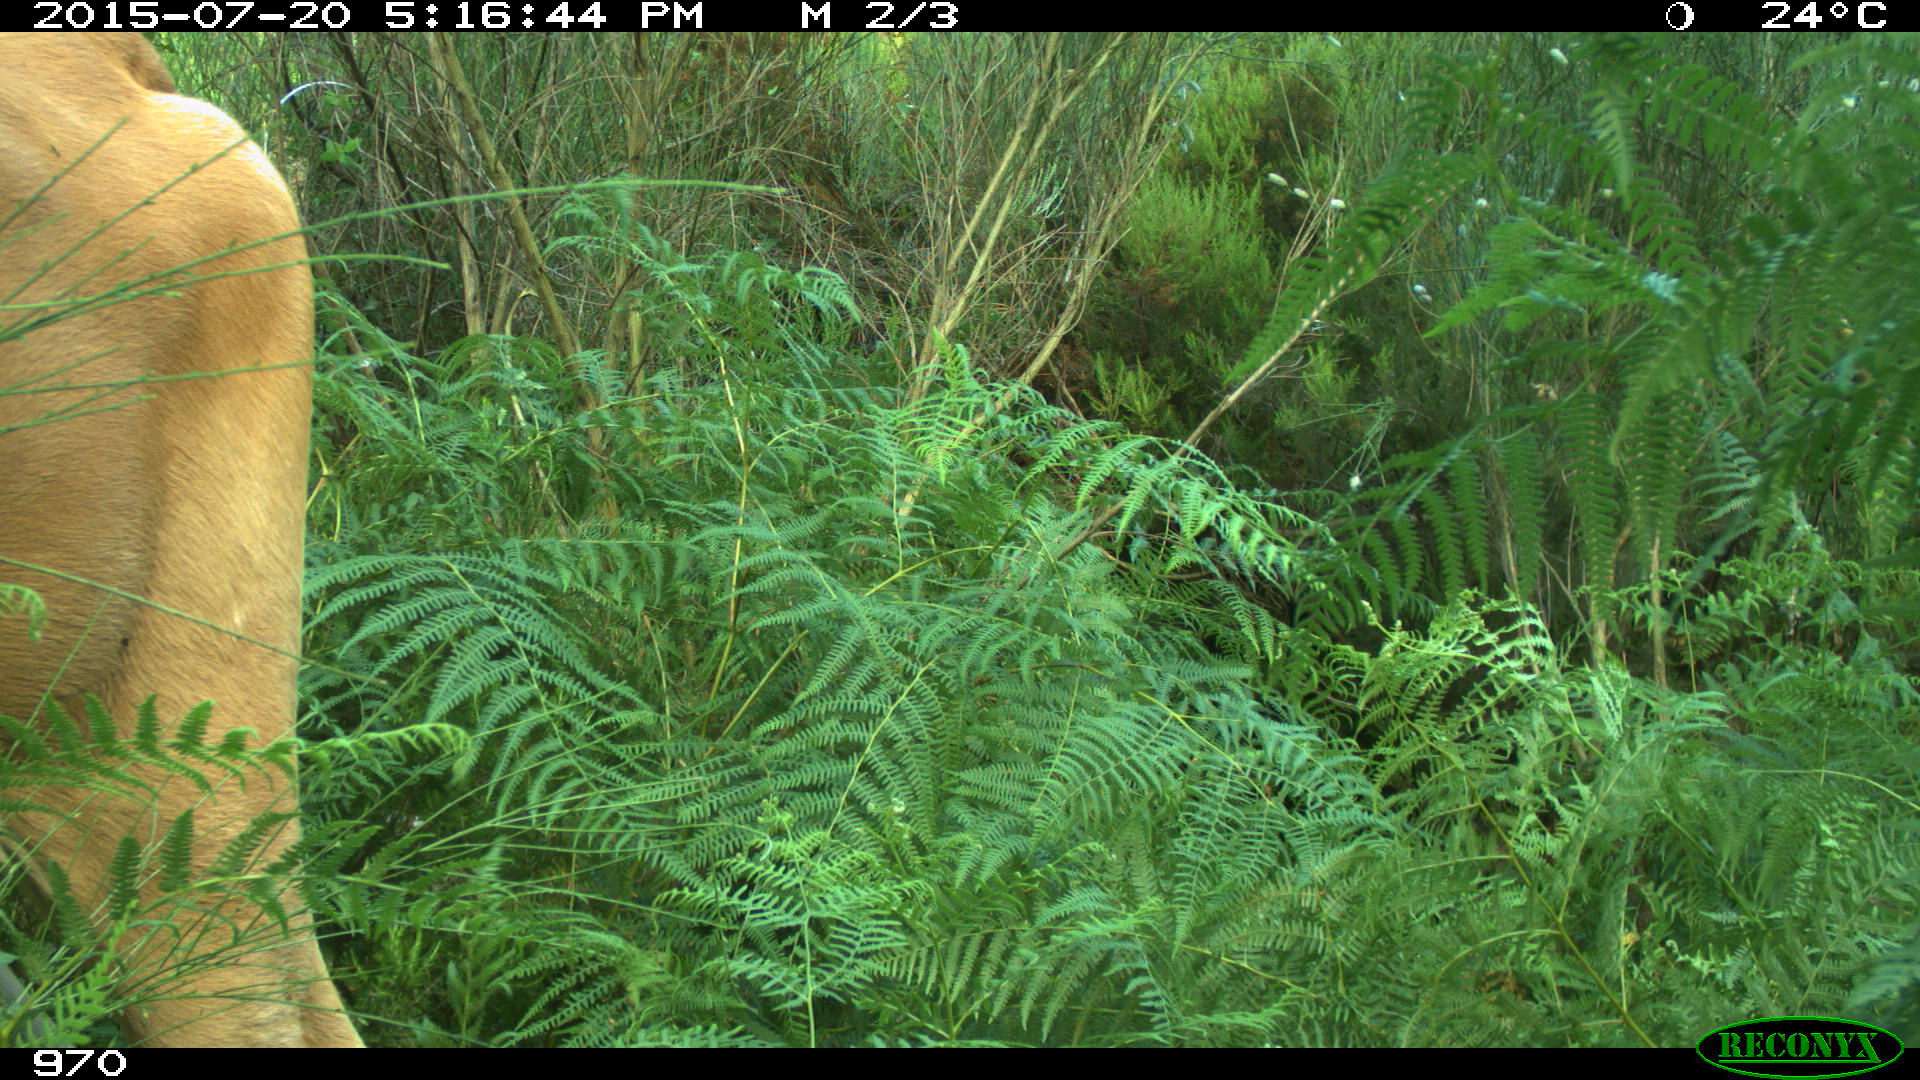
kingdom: Animalia
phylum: Chordata
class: Mammalia
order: Artiodactyla
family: Bovidae
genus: Bos
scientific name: Bos taurus
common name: Domesticated cattle
